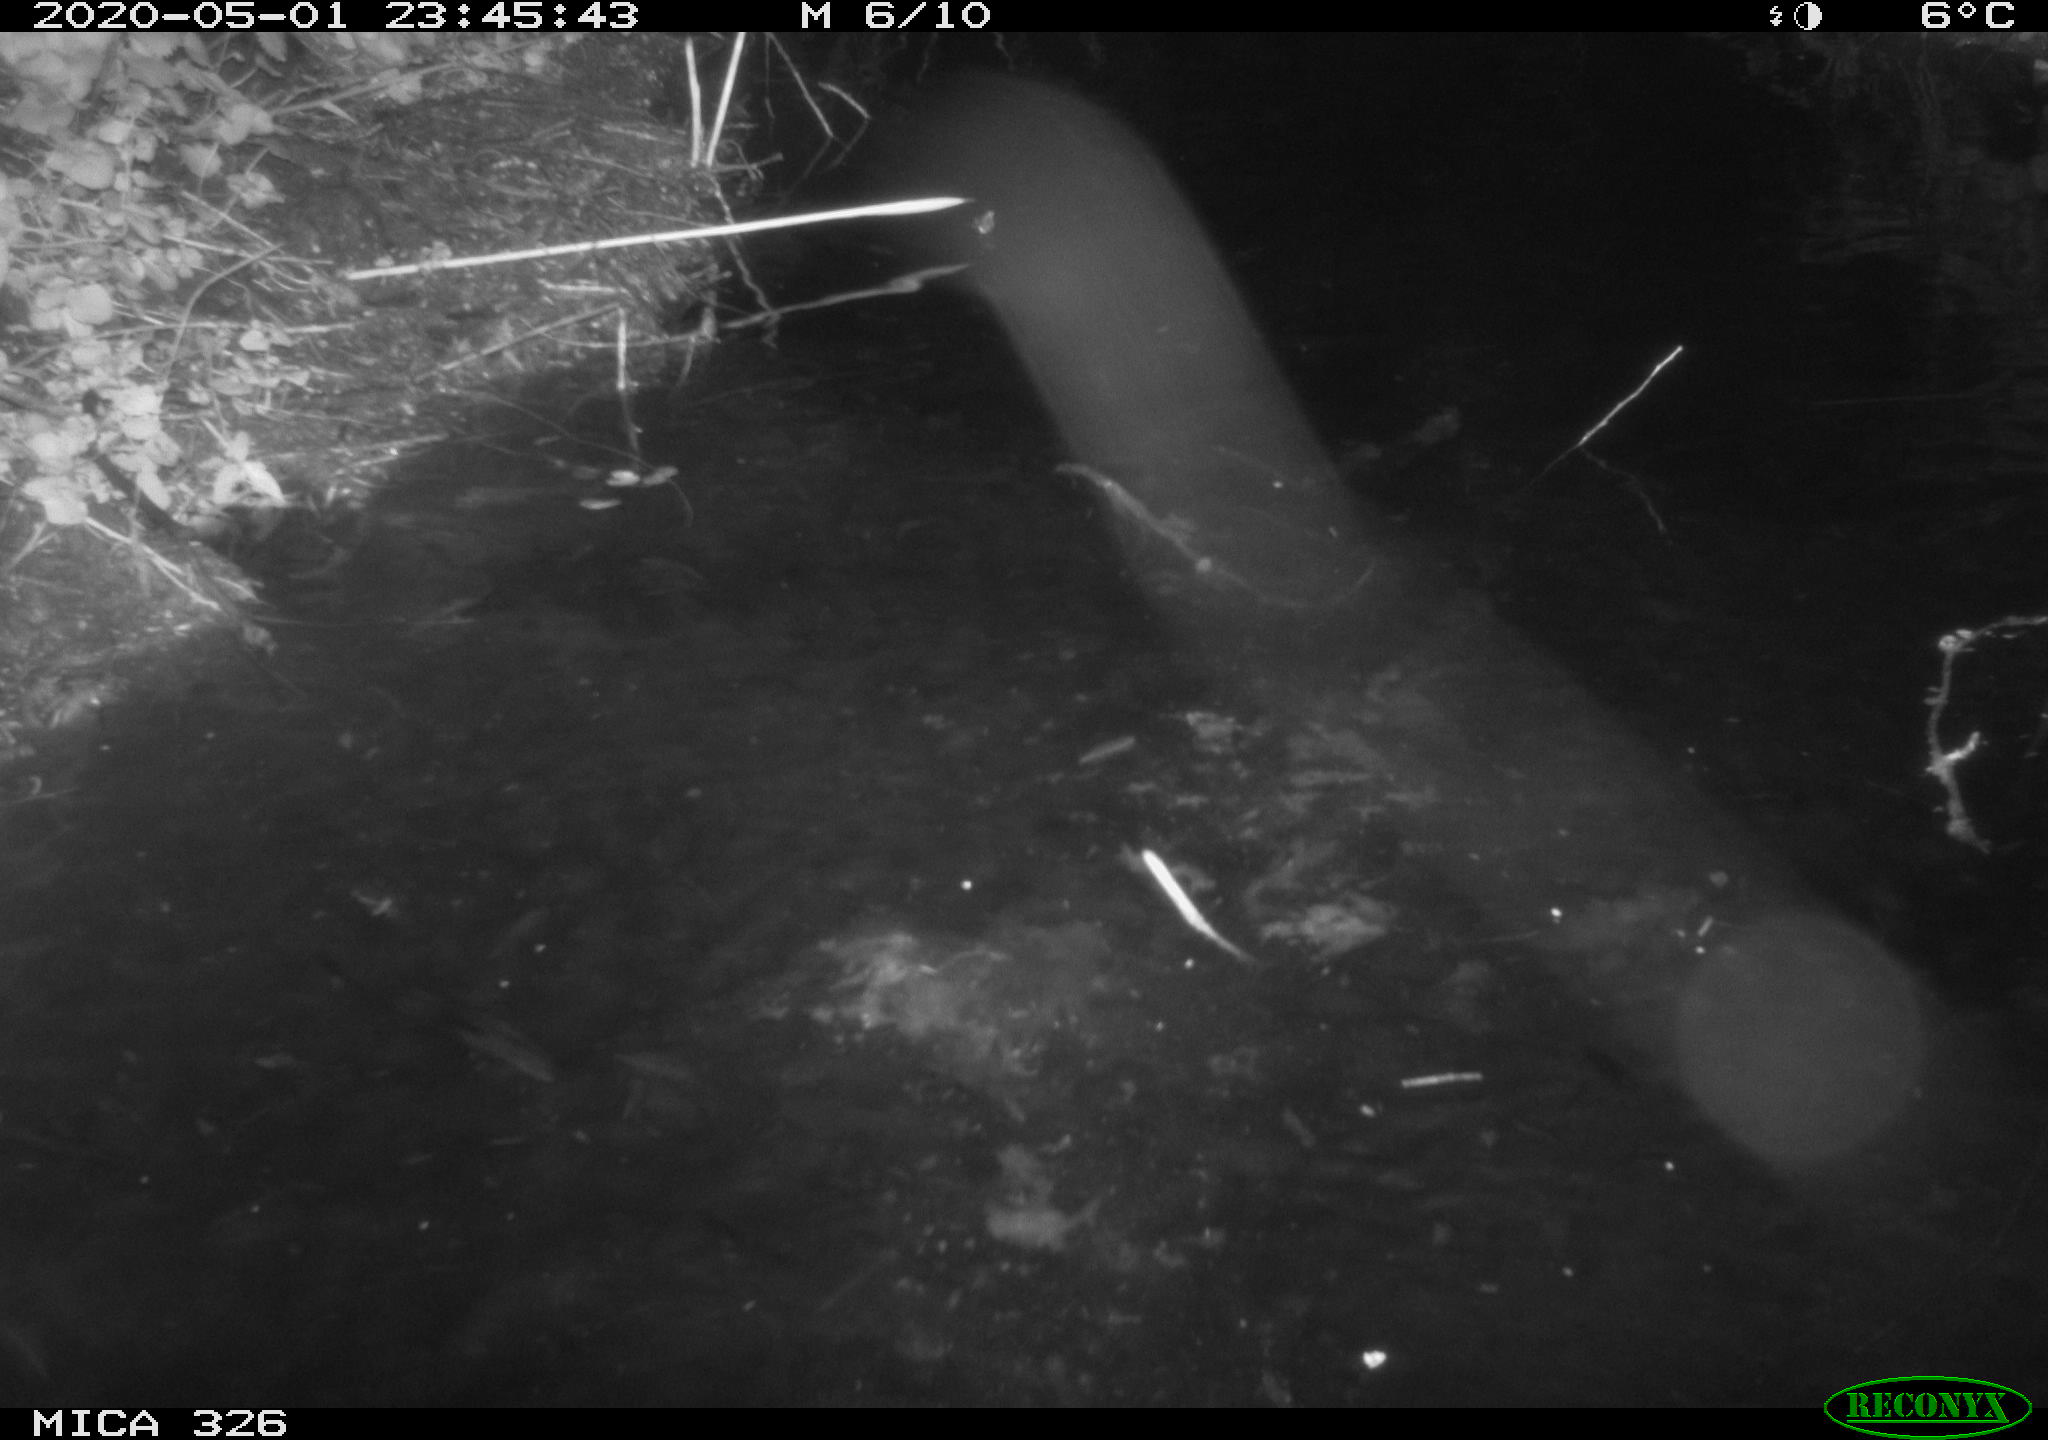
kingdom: Animalia
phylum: Chordata
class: Mammalia
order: Rodentia
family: Cricetidae
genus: Ondatra
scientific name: Ondatra zibethicus
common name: Muskrat
